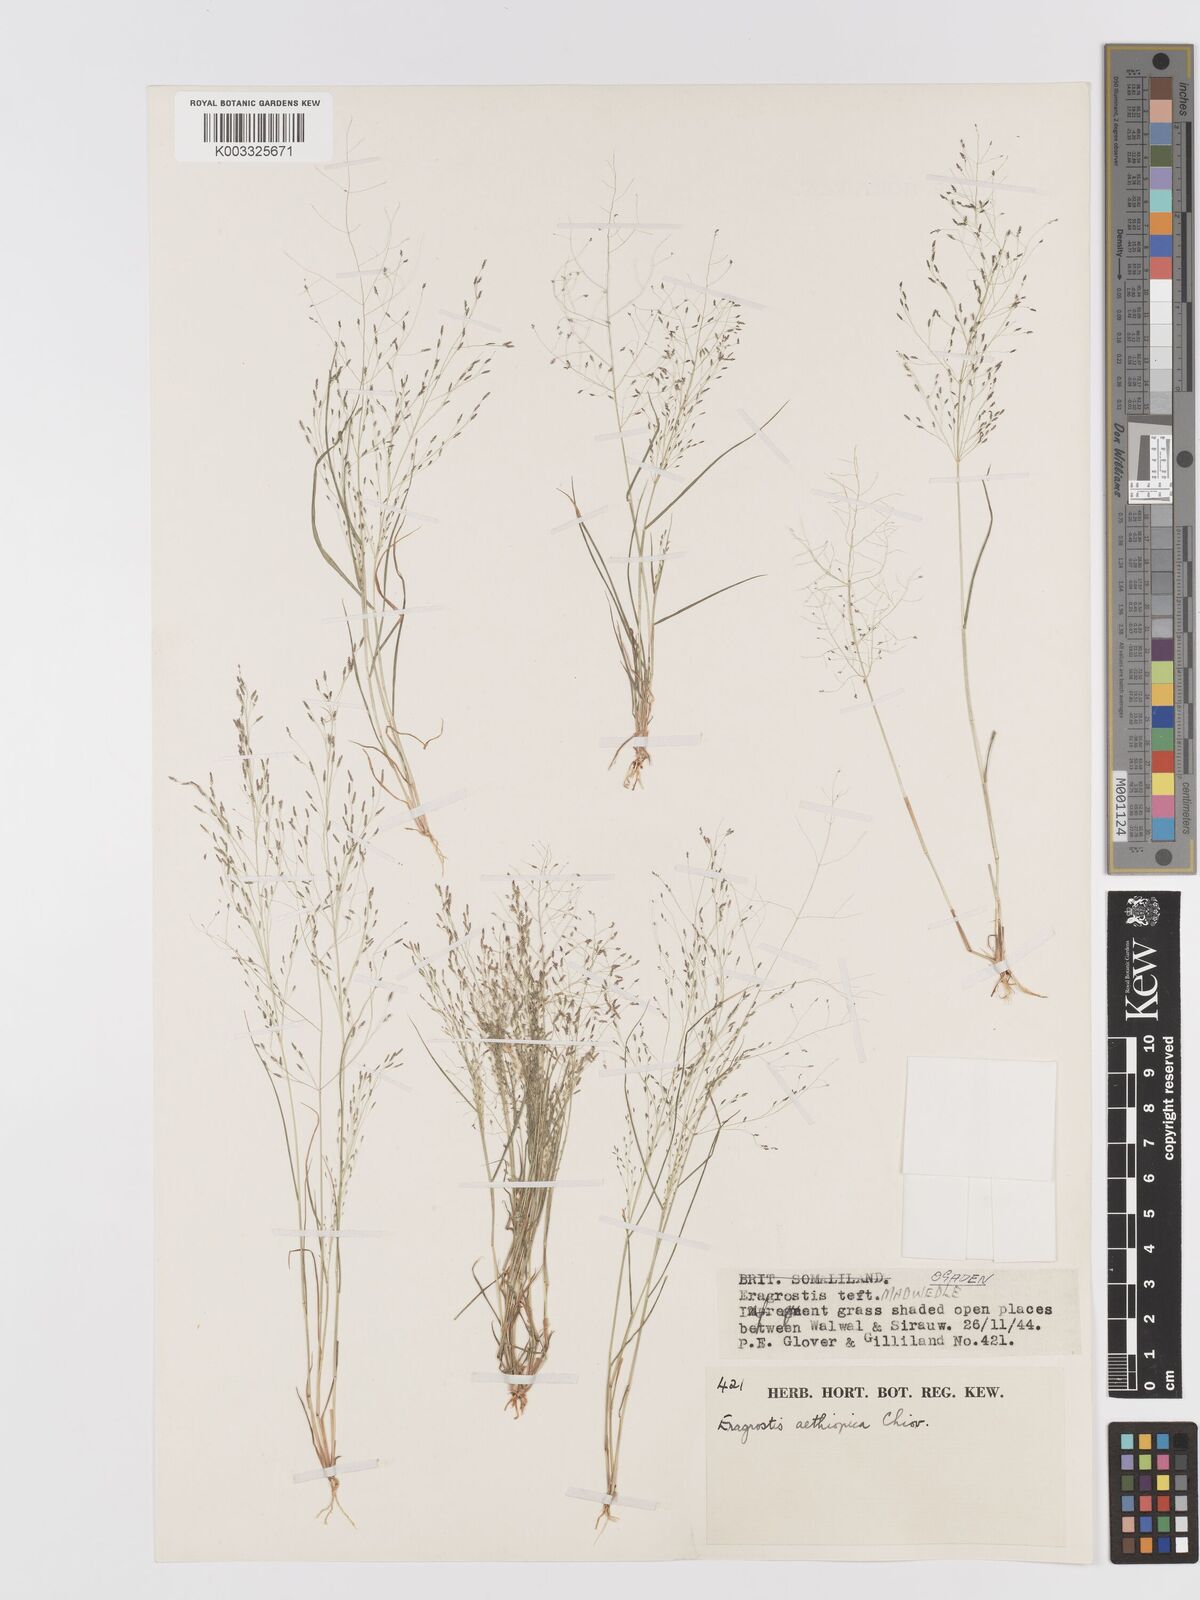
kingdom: Plantae
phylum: Tracheophyta
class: Liliopsida
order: Poales
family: Poaceae
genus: Eragrostis
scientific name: Eragrostis aethiopica
